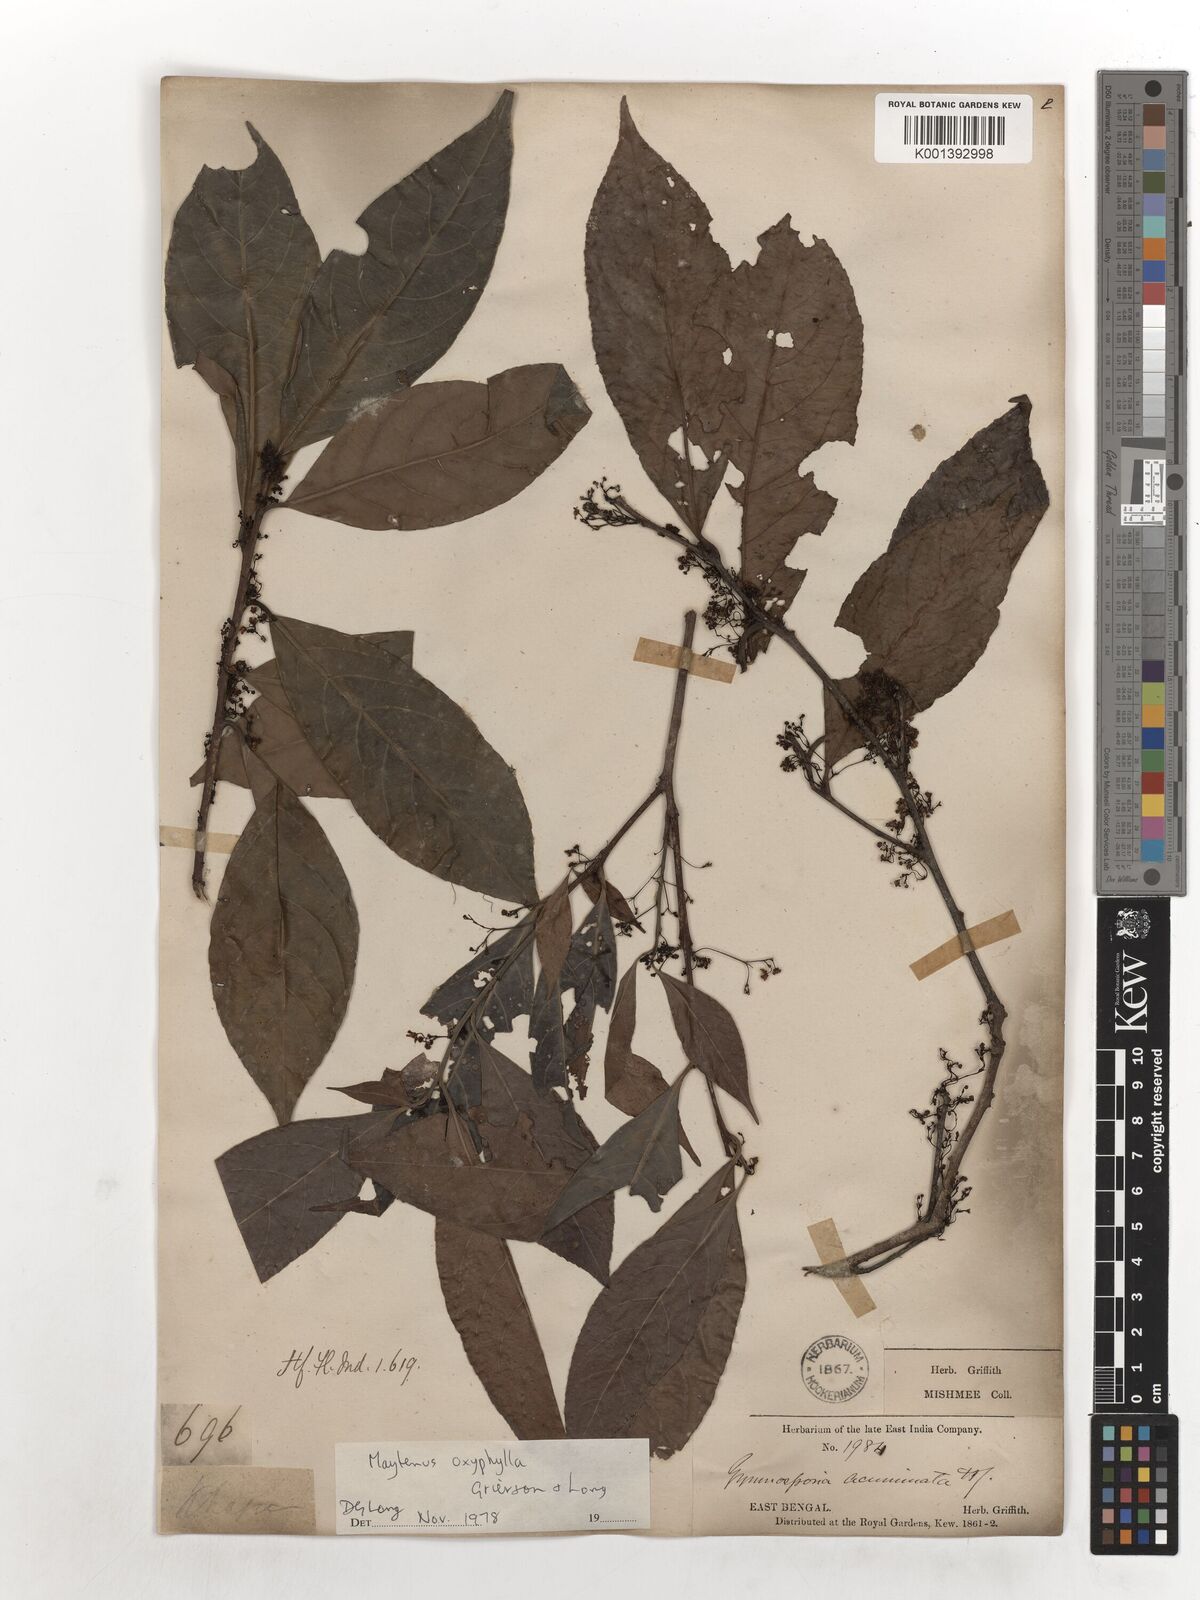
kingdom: Plantae
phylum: Tracheophyta
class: Magnoliopsida
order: Celastrales
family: Celastraceae
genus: Gymnosporia
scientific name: Gymnosporia oxyphylla
